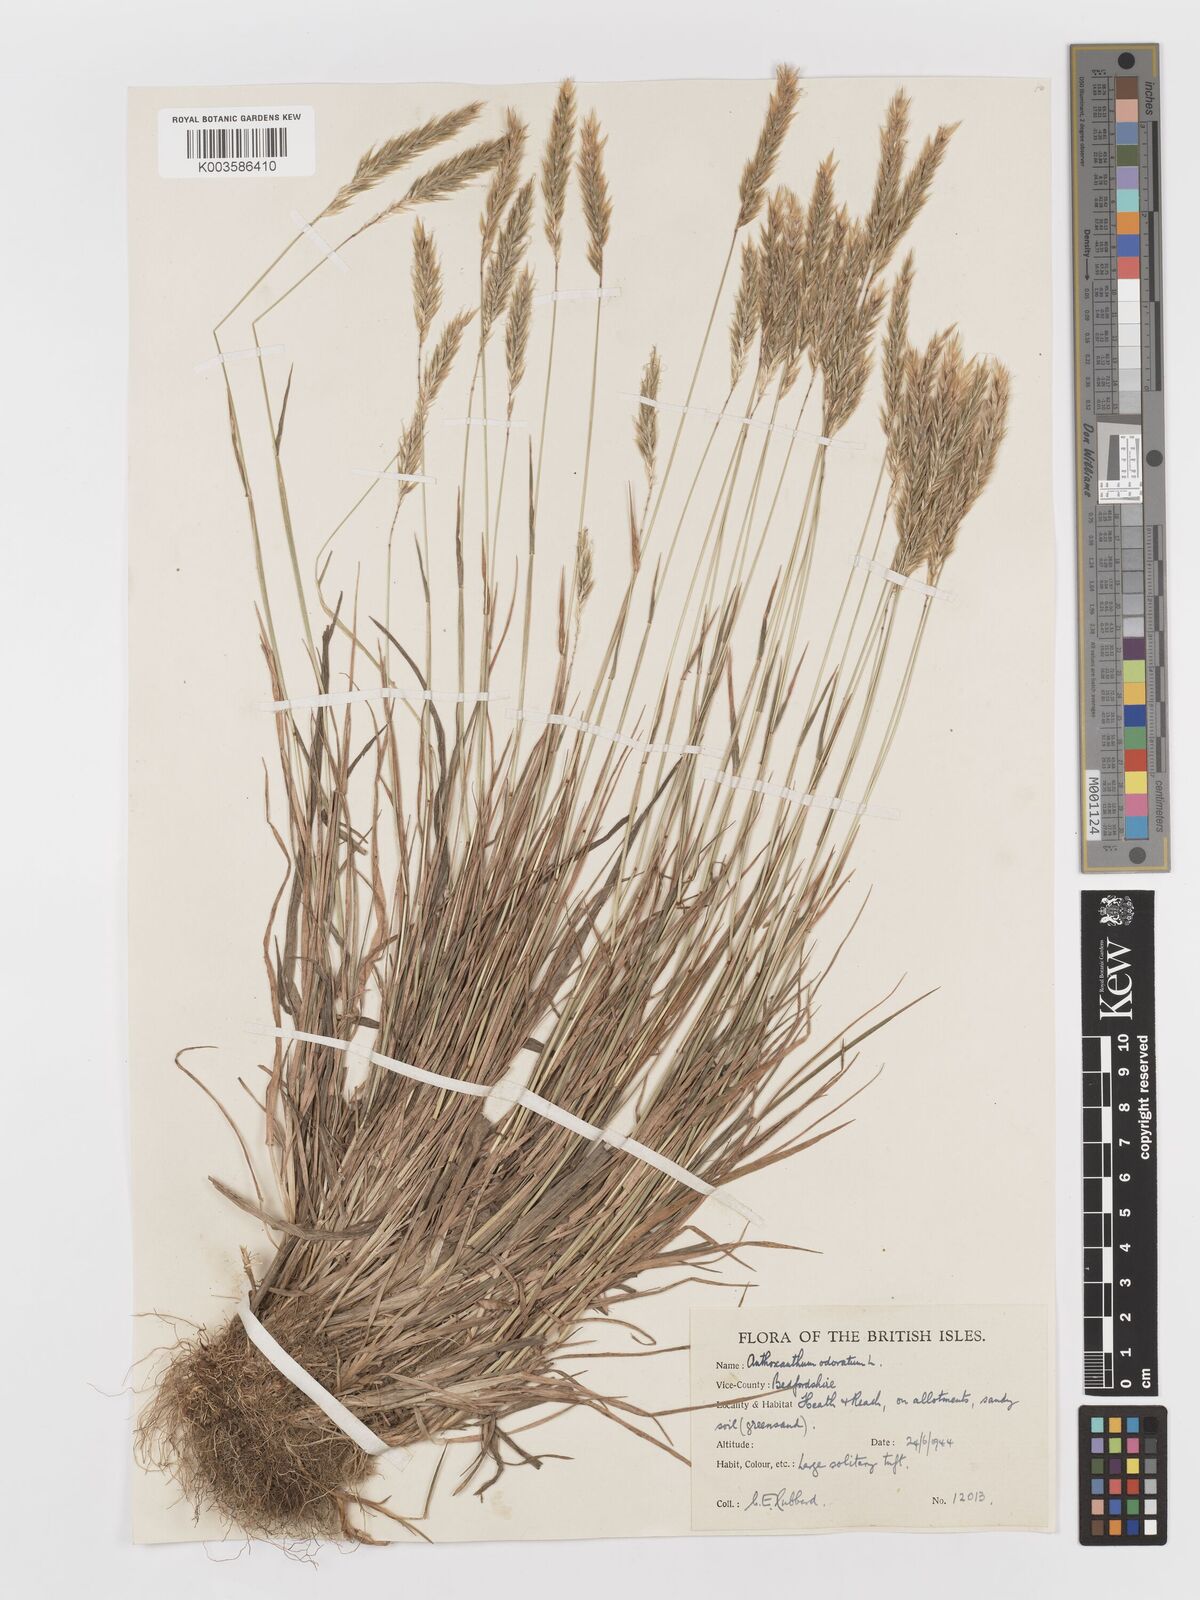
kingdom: Plantae
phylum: Tracheophyta
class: Liliopsida
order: Poales
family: Poaceae
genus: Anthoxanthum
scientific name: Anthoxanthum odoratum
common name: Sweet vernalgrass
